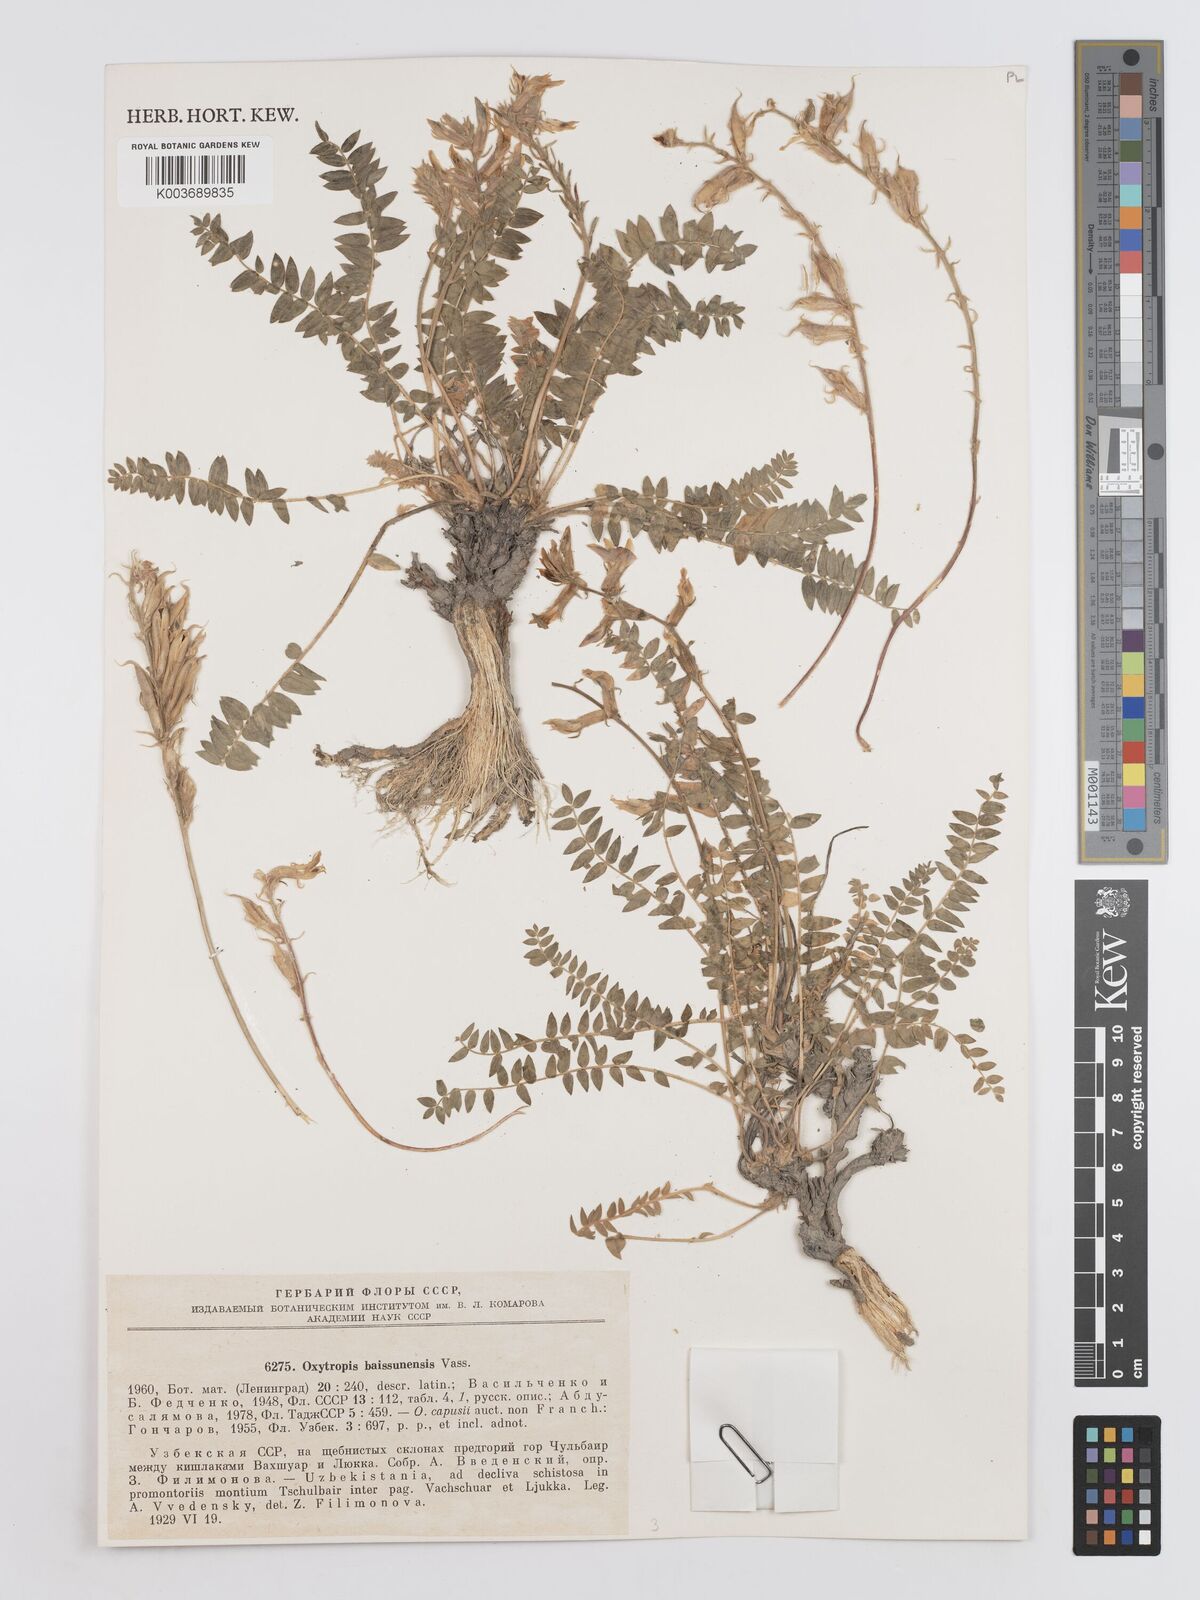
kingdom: Plantae
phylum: Tracheophyta
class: Magnoliopsida
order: Fabales
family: Fabaceae
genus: Oxytropis
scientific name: Oxytropis baissunensis
